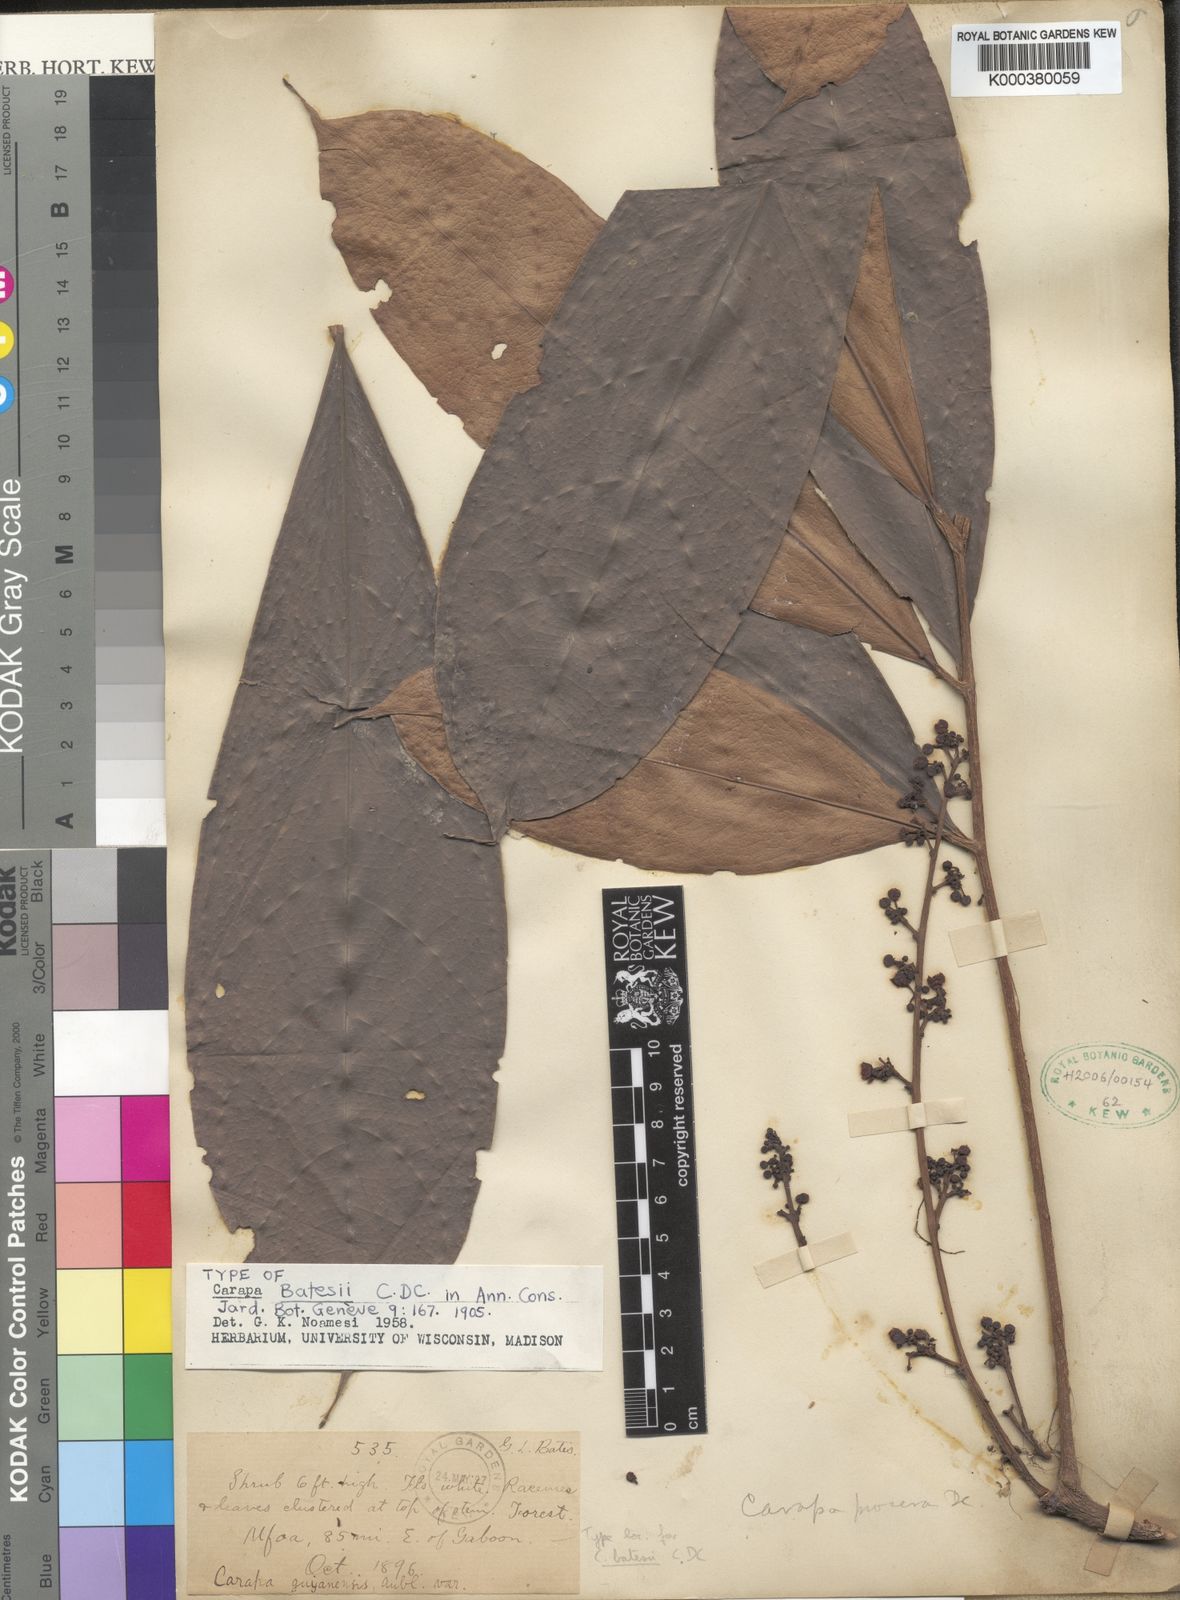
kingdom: Plantae
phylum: Tracheophyta
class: Magnoliopsida
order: Sapindales
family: Meliaceae
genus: Carapa
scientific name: Carapa batesii
